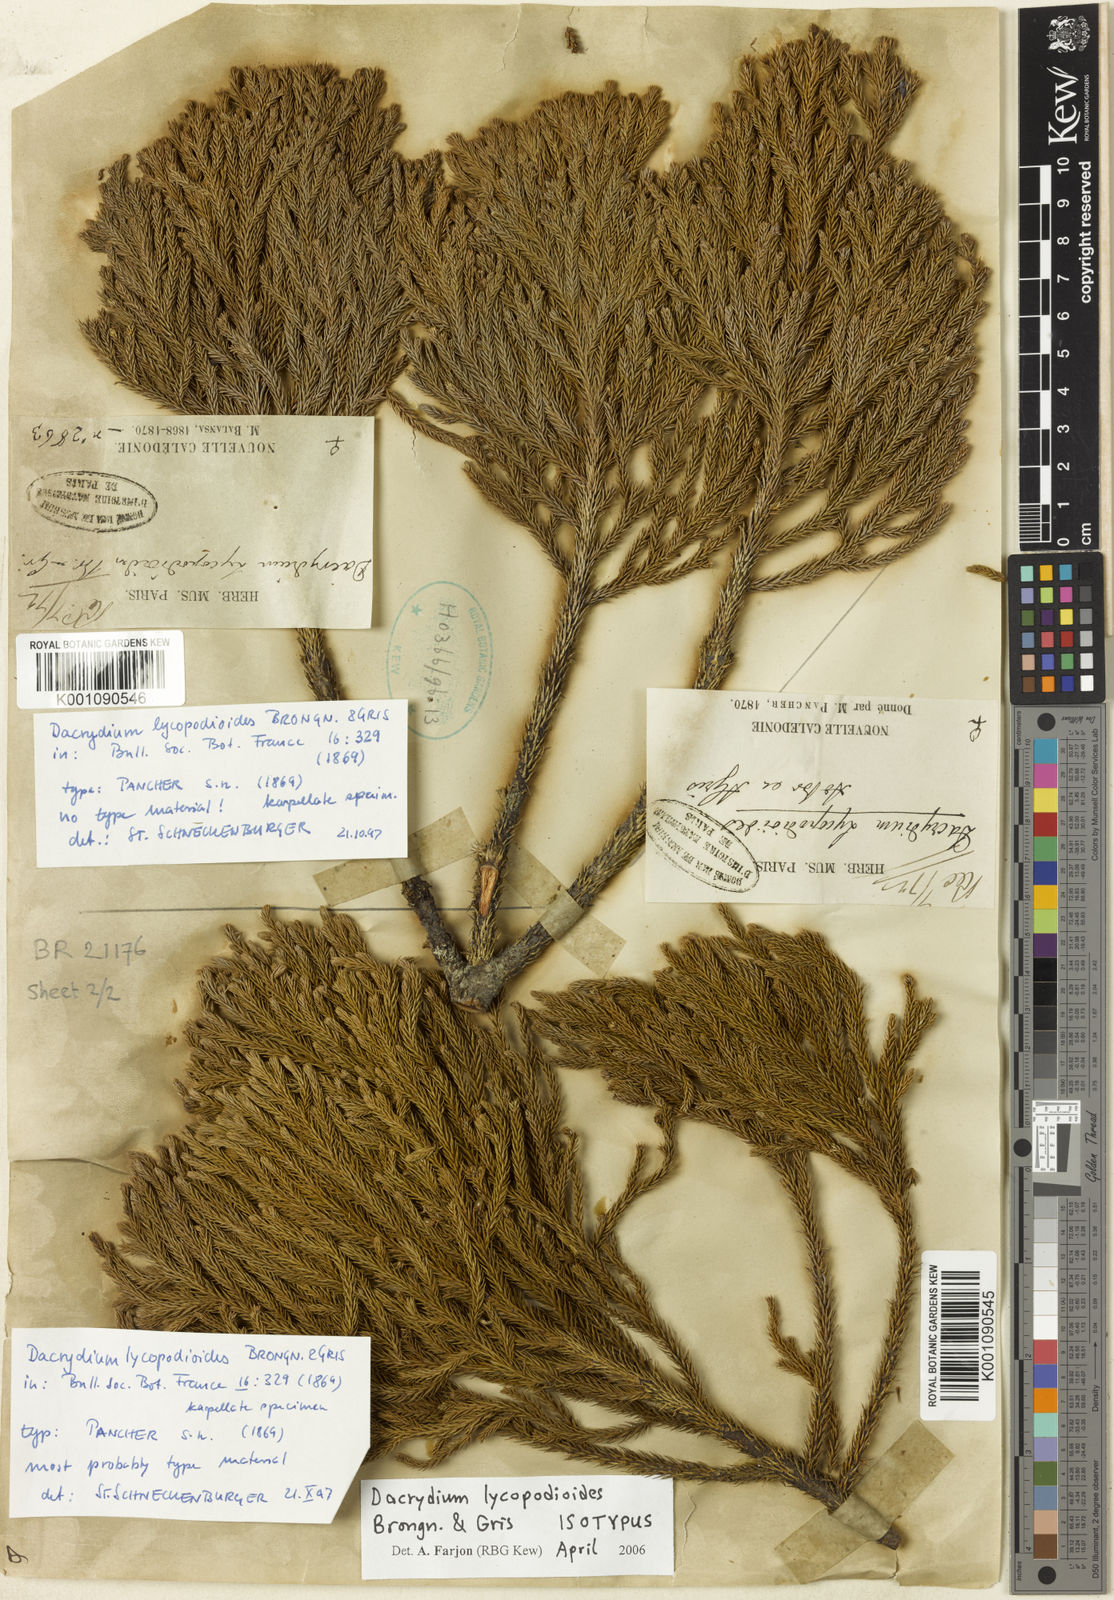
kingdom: Plantae
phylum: Tracheophyta
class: Pinopsida
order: Pinales
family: Podocarpaceae
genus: Dacrydium
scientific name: Dacrydium lycopodioides
